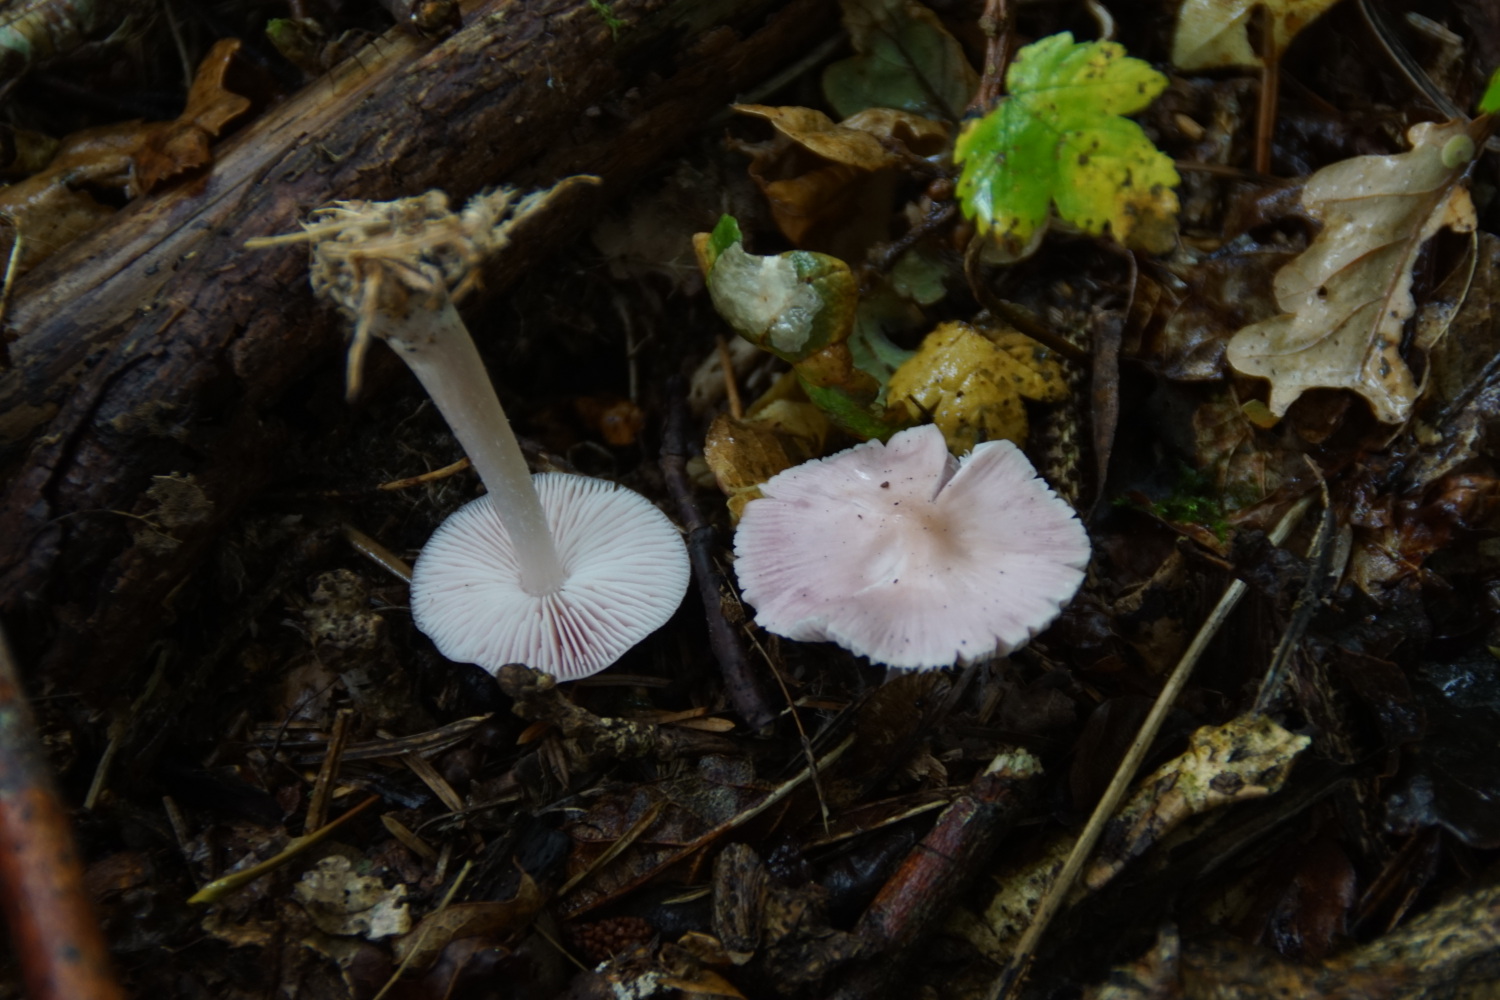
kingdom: Fungi
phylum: Basidiomycota
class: Agaricomycetes
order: Agaricales
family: Mycenaceae
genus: Mycena
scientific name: Mycena rosea
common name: rosa huesvamp
